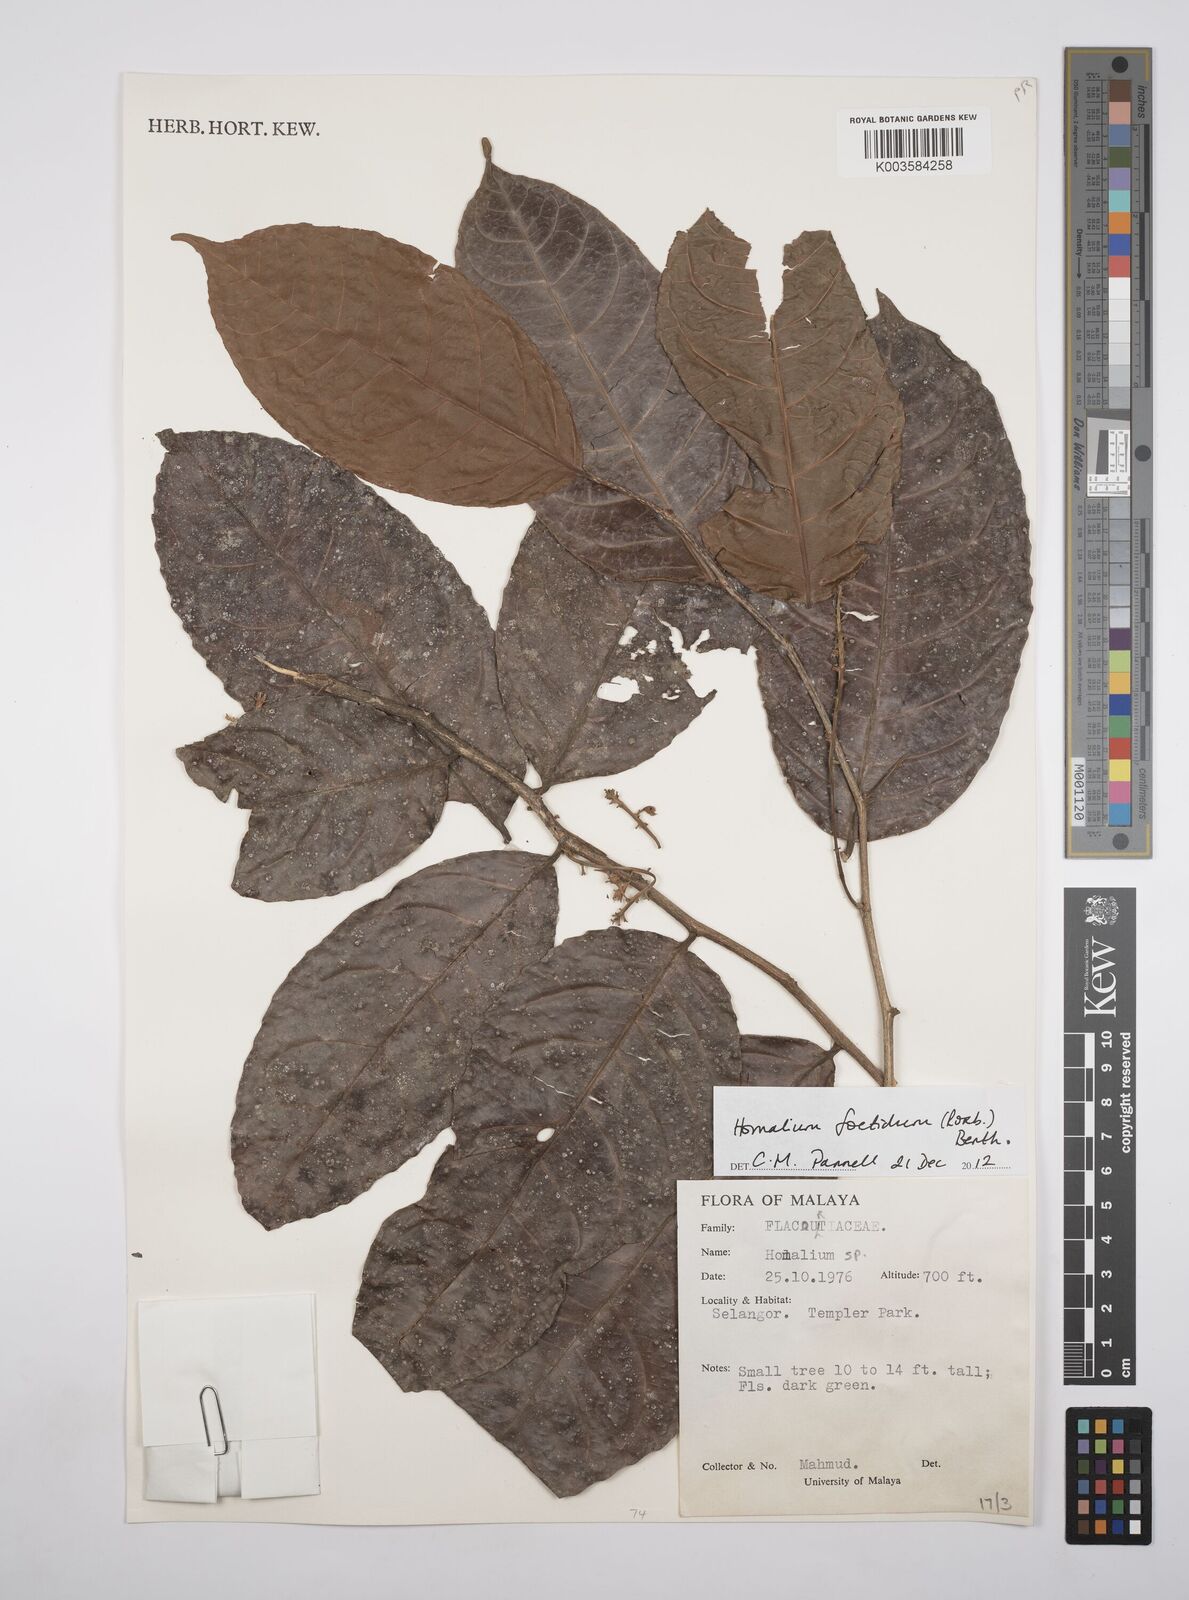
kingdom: Plantae
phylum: Tracheophyta
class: Magnoliopsida
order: Malpighiales
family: Salicaceae
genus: Homalium
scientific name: Homalium foetidum
